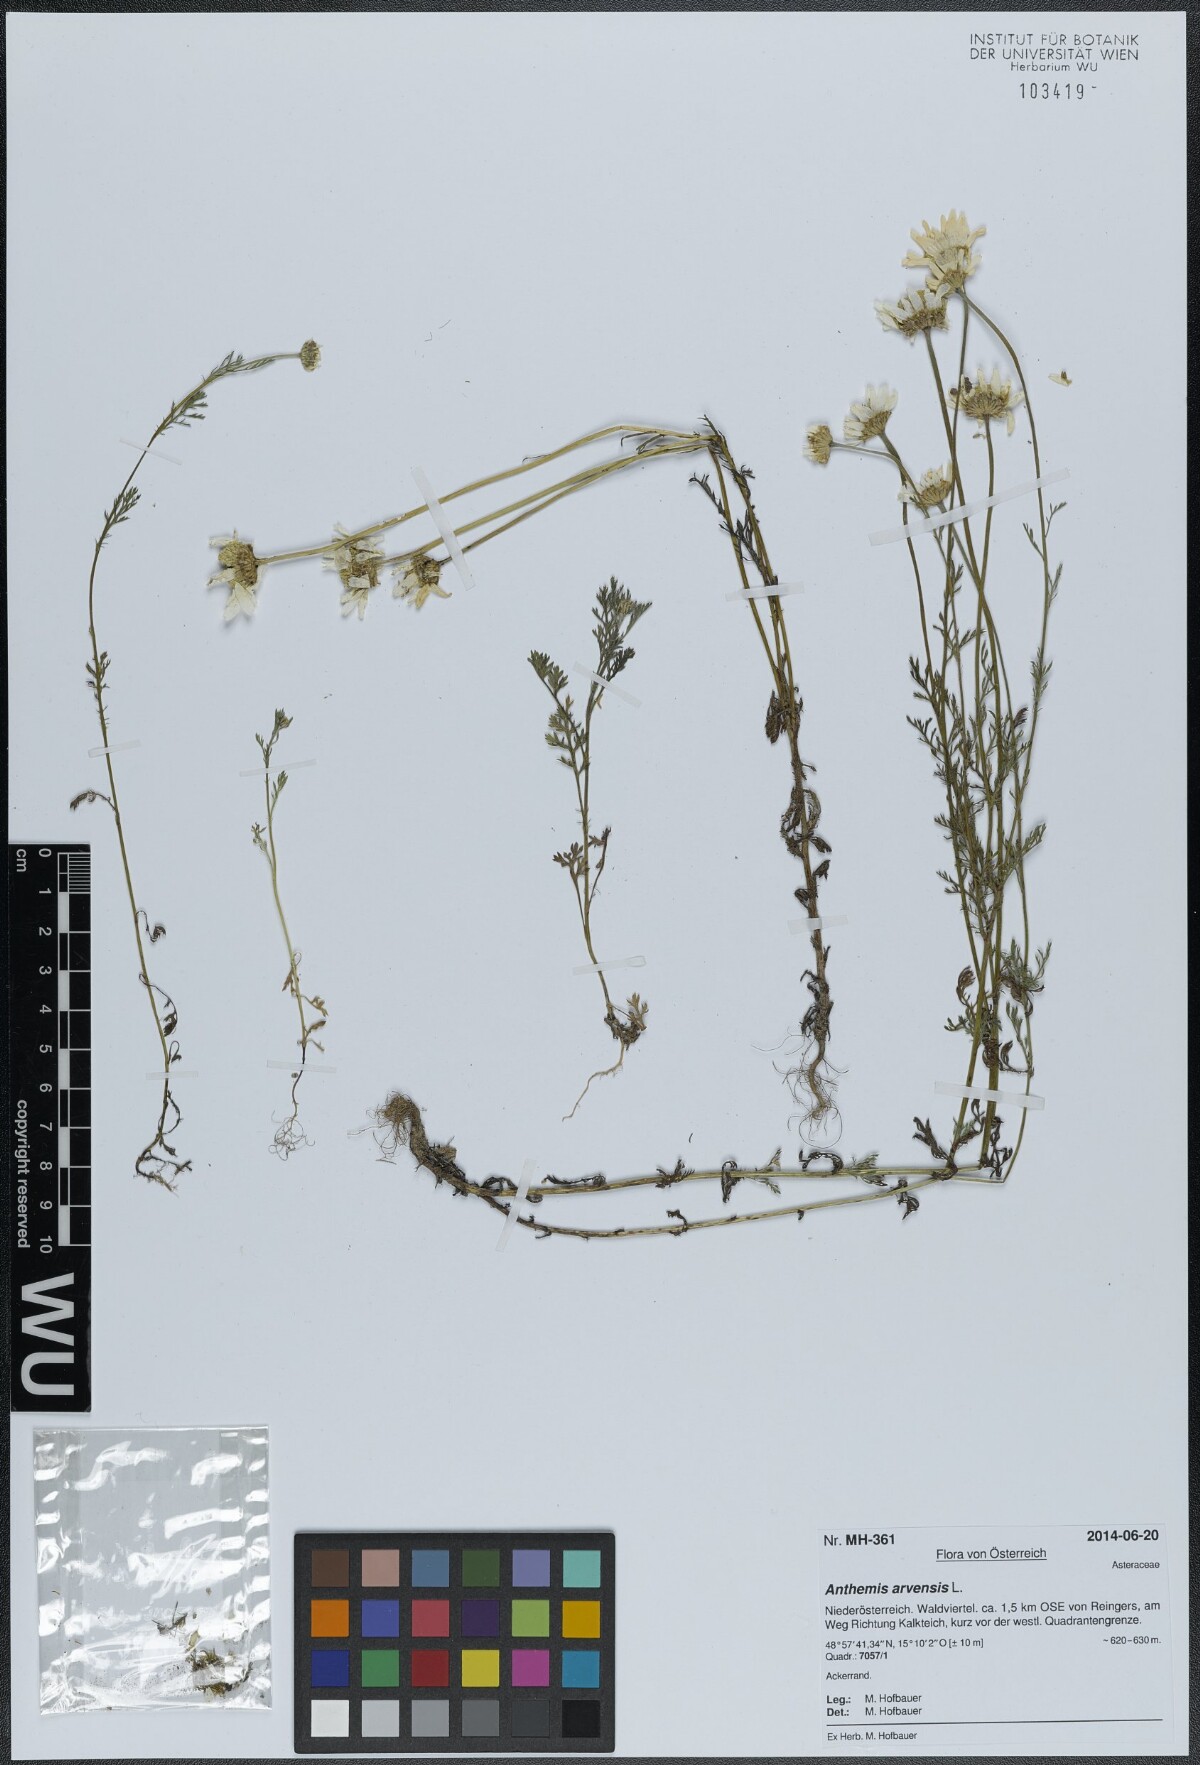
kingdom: Plantae
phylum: Tracheophyta
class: Magnoliopsida
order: Asterales
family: Asteraceae
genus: Anthemis
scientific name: Anthemis arvensis
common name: Corn chamomile
